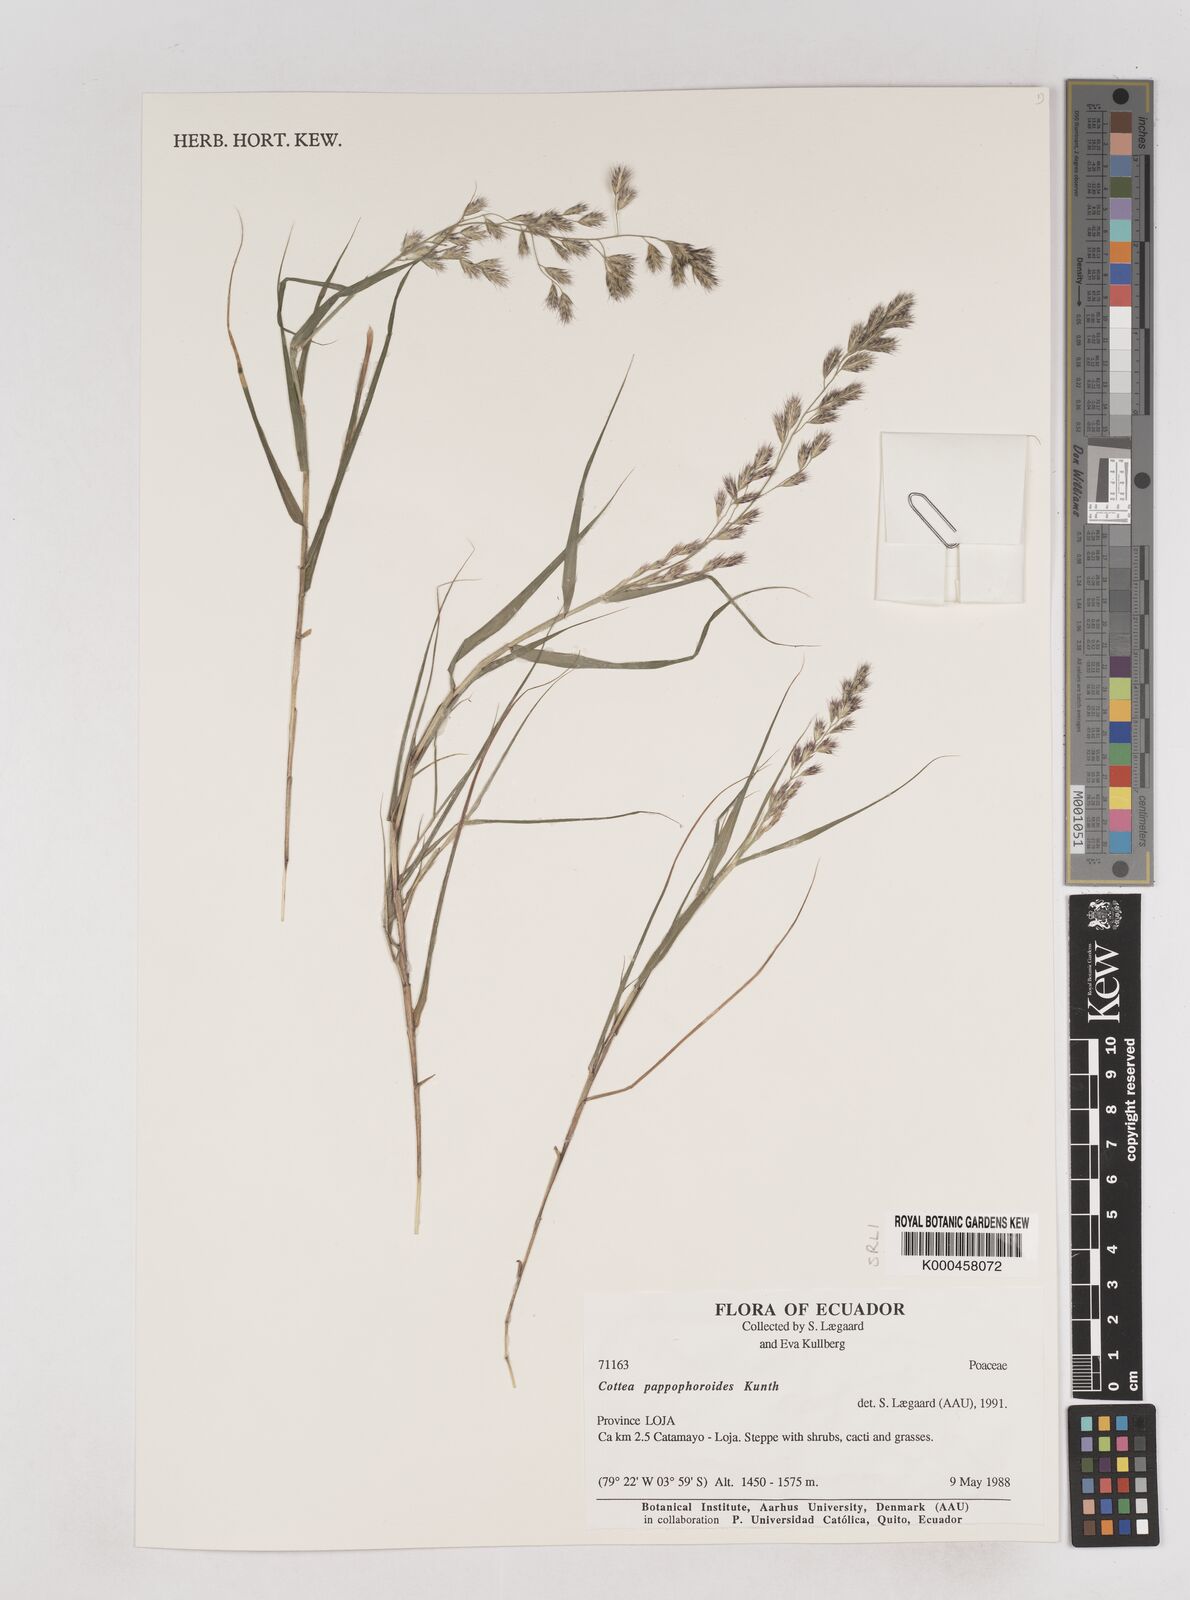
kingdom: Plantae
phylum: Tracheophyta
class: Liliopsida
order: Poales
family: Poaceae
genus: Cottea
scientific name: Cottea
